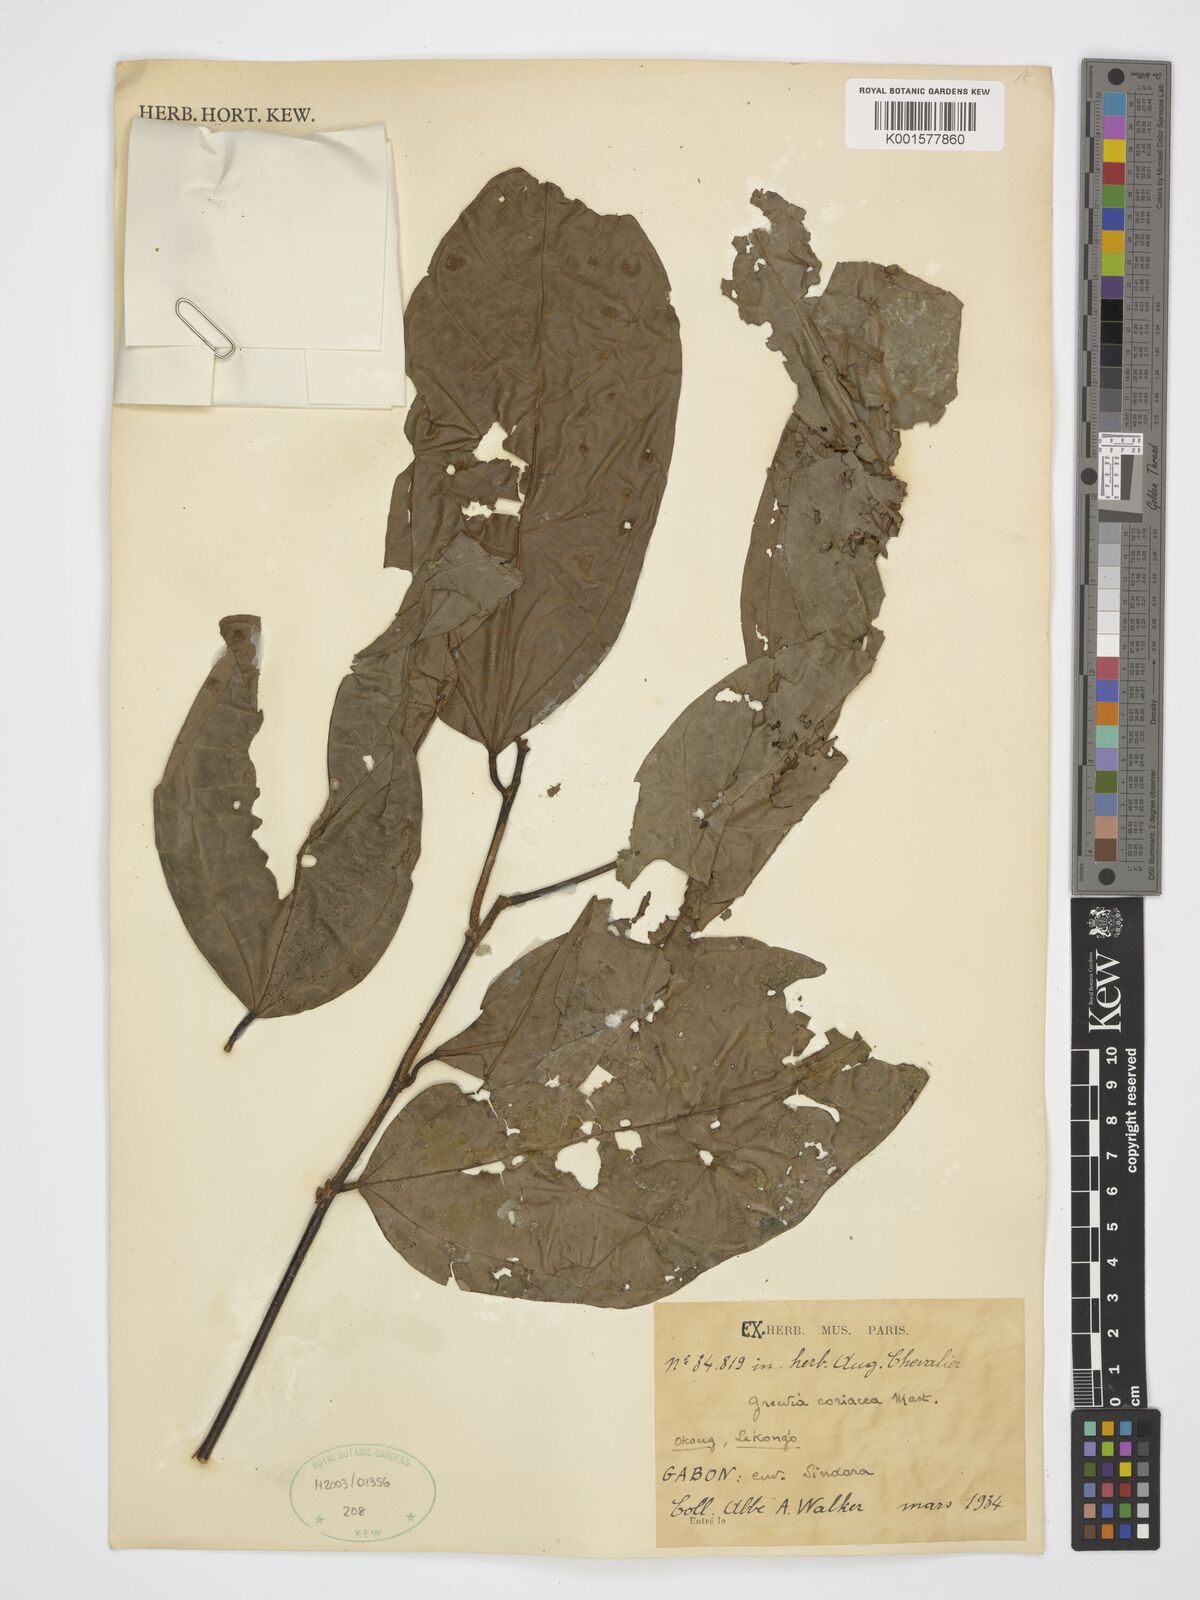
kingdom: Plantae
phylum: Tracheophyta
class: Magnoliopsida
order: Malvales
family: Malvaceae
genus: Microcos
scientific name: Microcos coriacea
